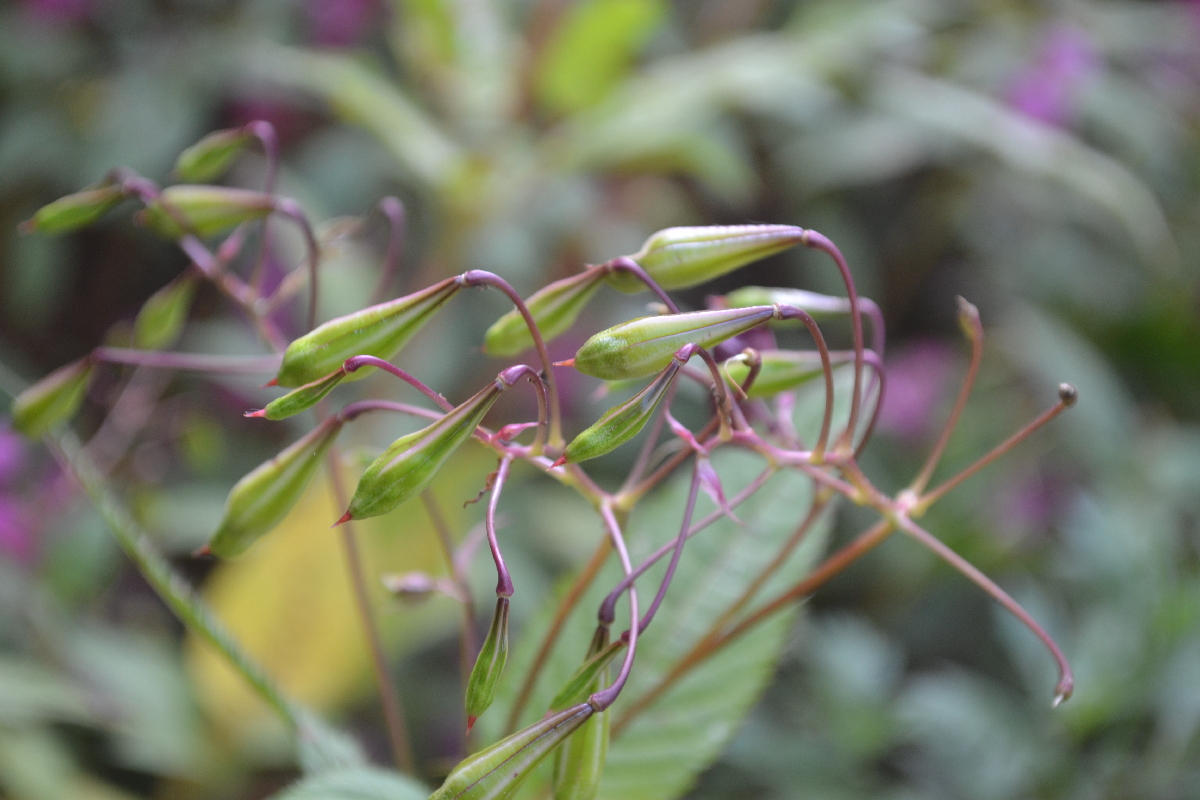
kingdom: Plantae
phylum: Tracheophyta
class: Magnoliopsida
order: Ericales
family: Balsaminaceae
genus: Impatiens
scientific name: Impatiens glandulifera
